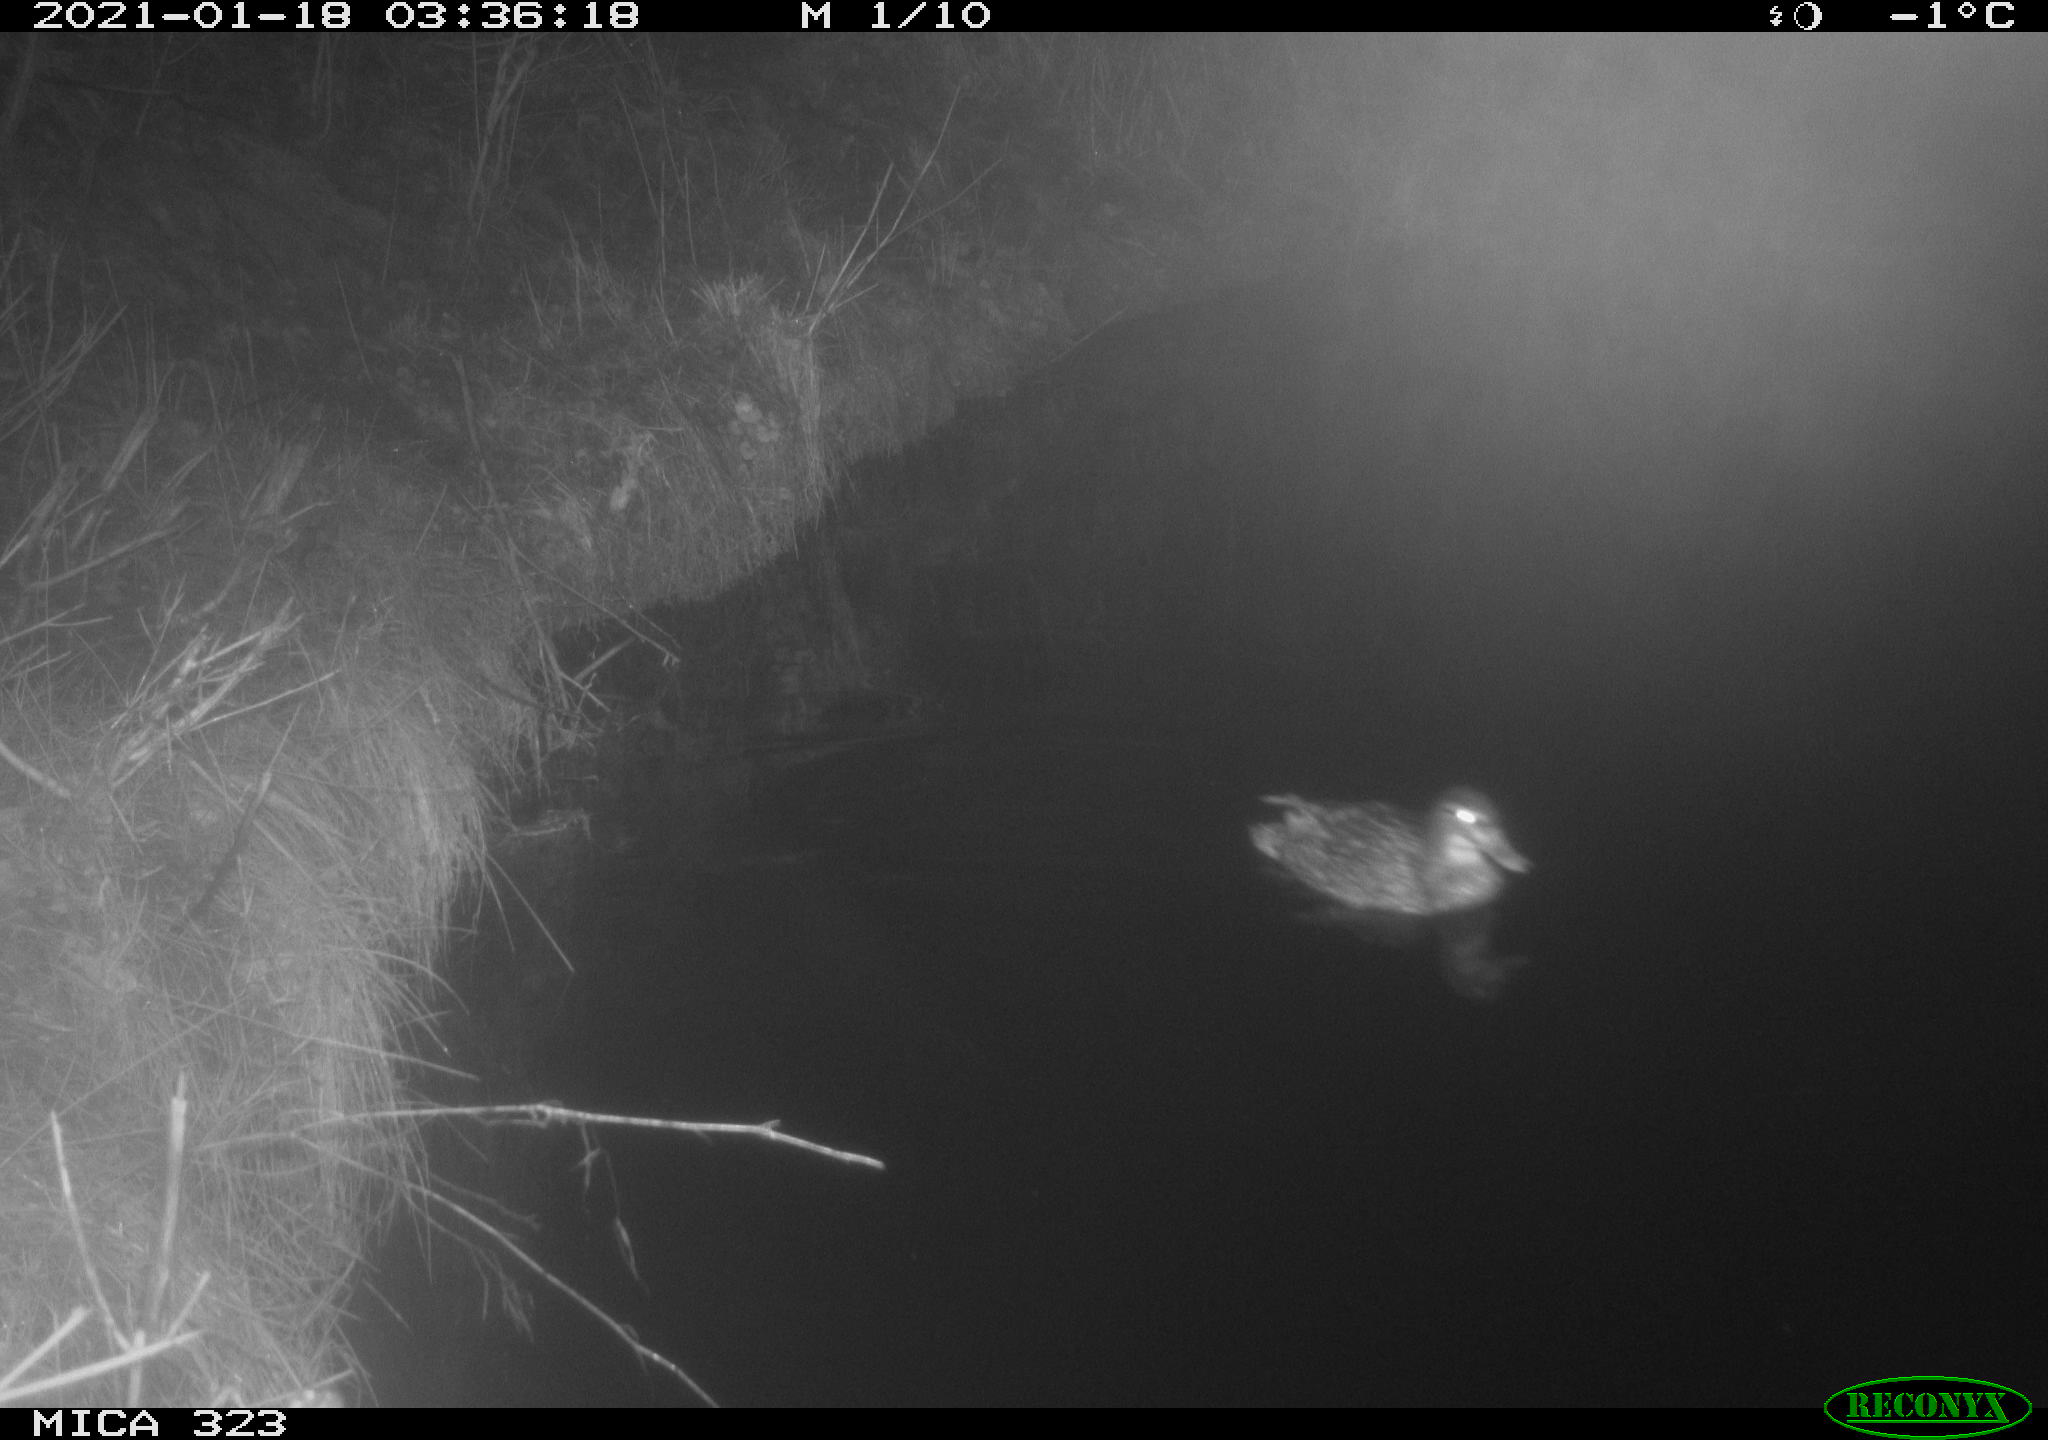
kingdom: Animalia
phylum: Chordata
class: Aves
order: Anseriformes
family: Anatidae
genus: Anas
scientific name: Anas platyrhynchos
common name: Mallard
